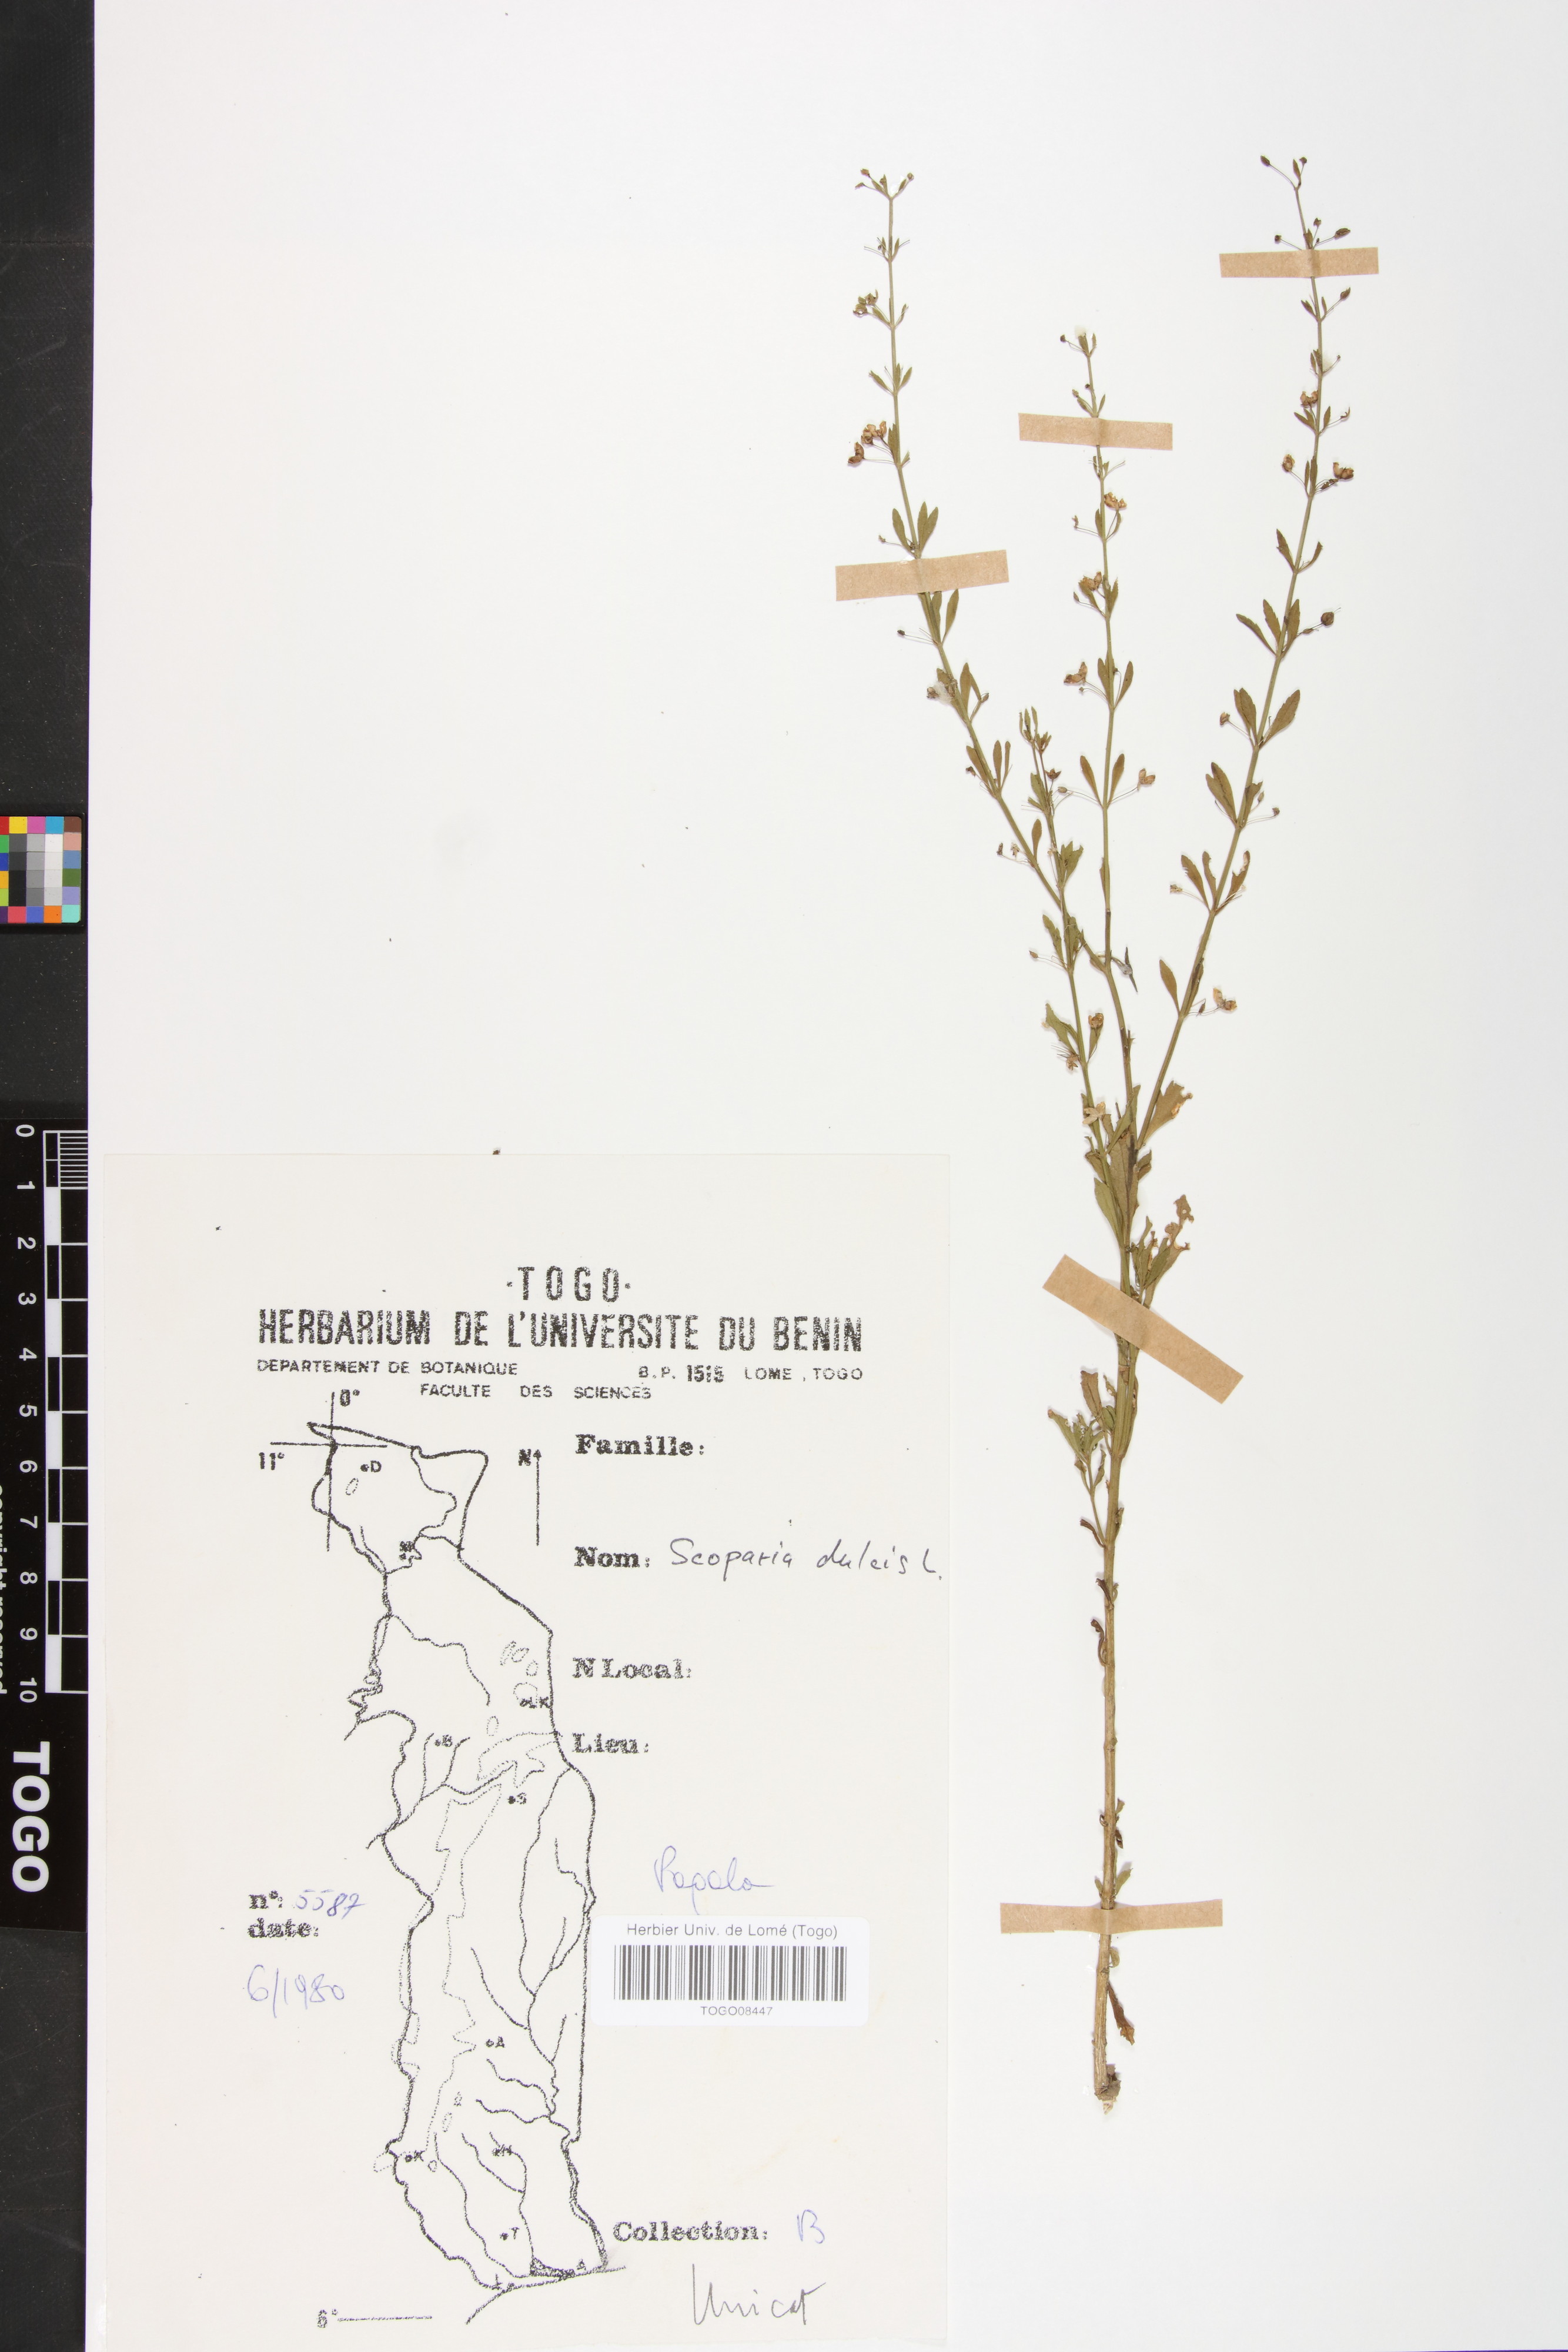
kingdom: Plantae
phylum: Tracheophyta
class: Magnoliopsida
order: Lamiales
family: Plantaginaceae
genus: Scoparia
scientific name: Scoparia dulcis
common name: Scoparia-weed
